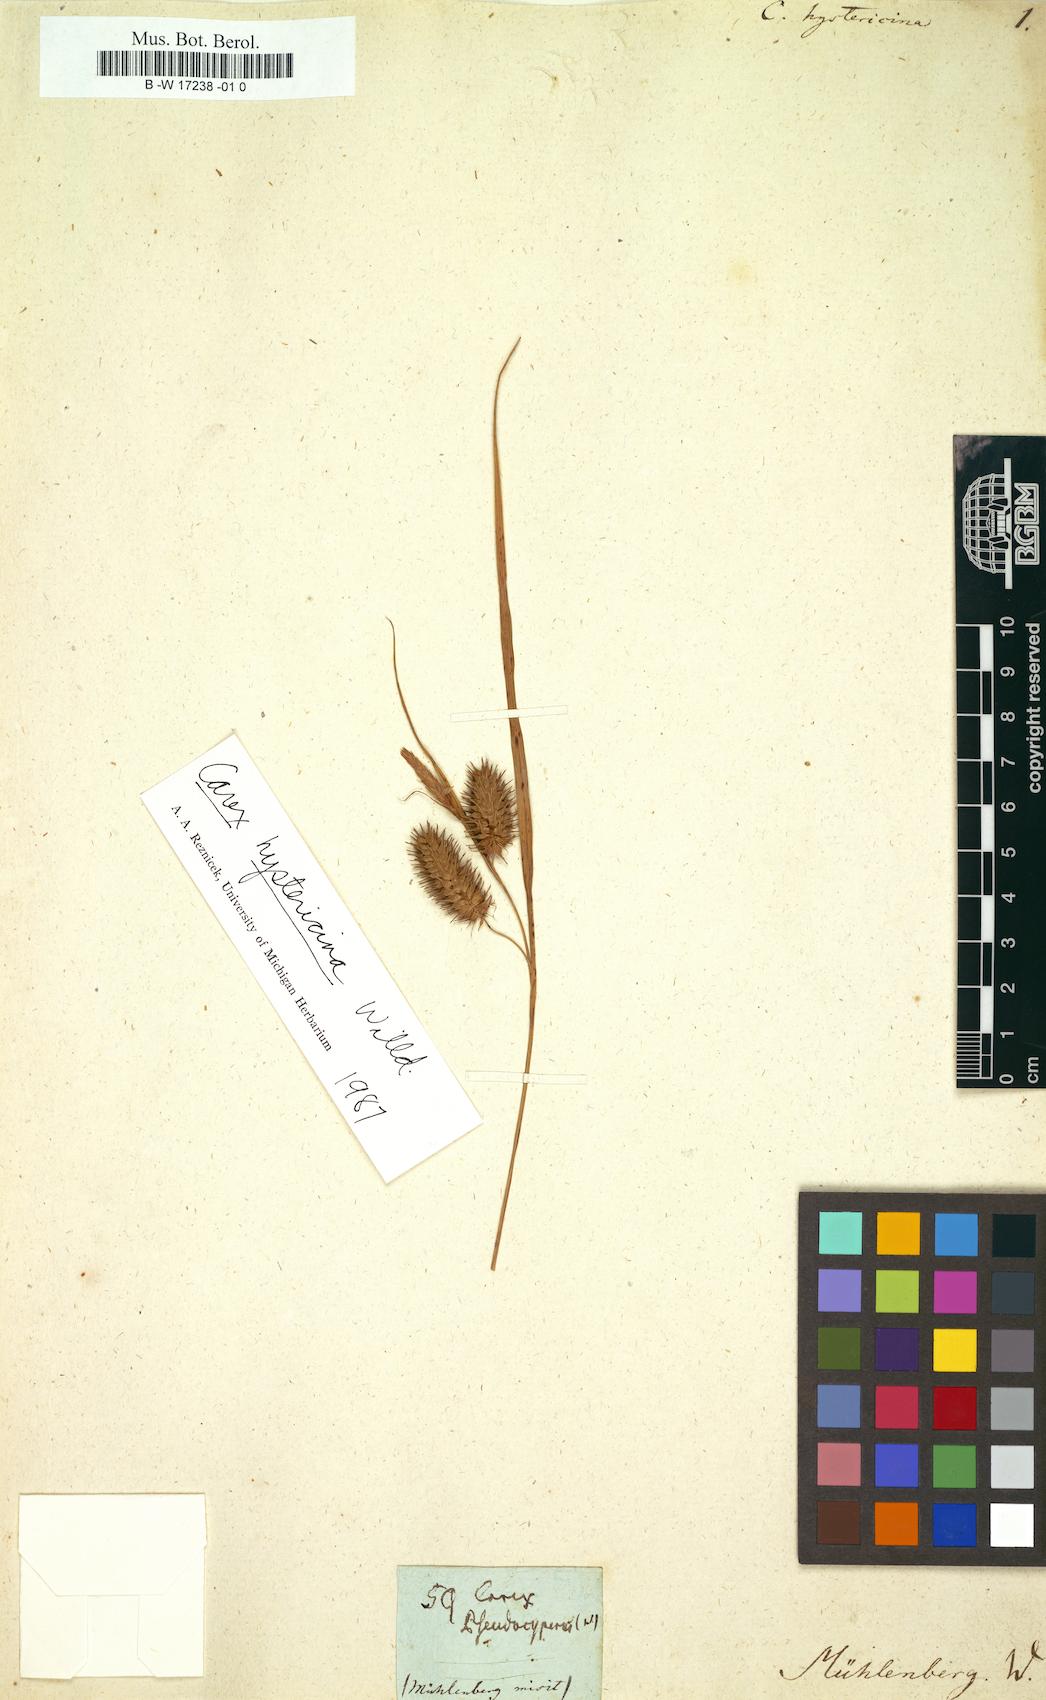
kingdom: Plantae
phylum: Tracheophyta
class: Liliopsida
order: Poales
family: Cyperaceae
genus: Carex
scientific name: Carex hystericina
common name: Bottlebrush sedge
